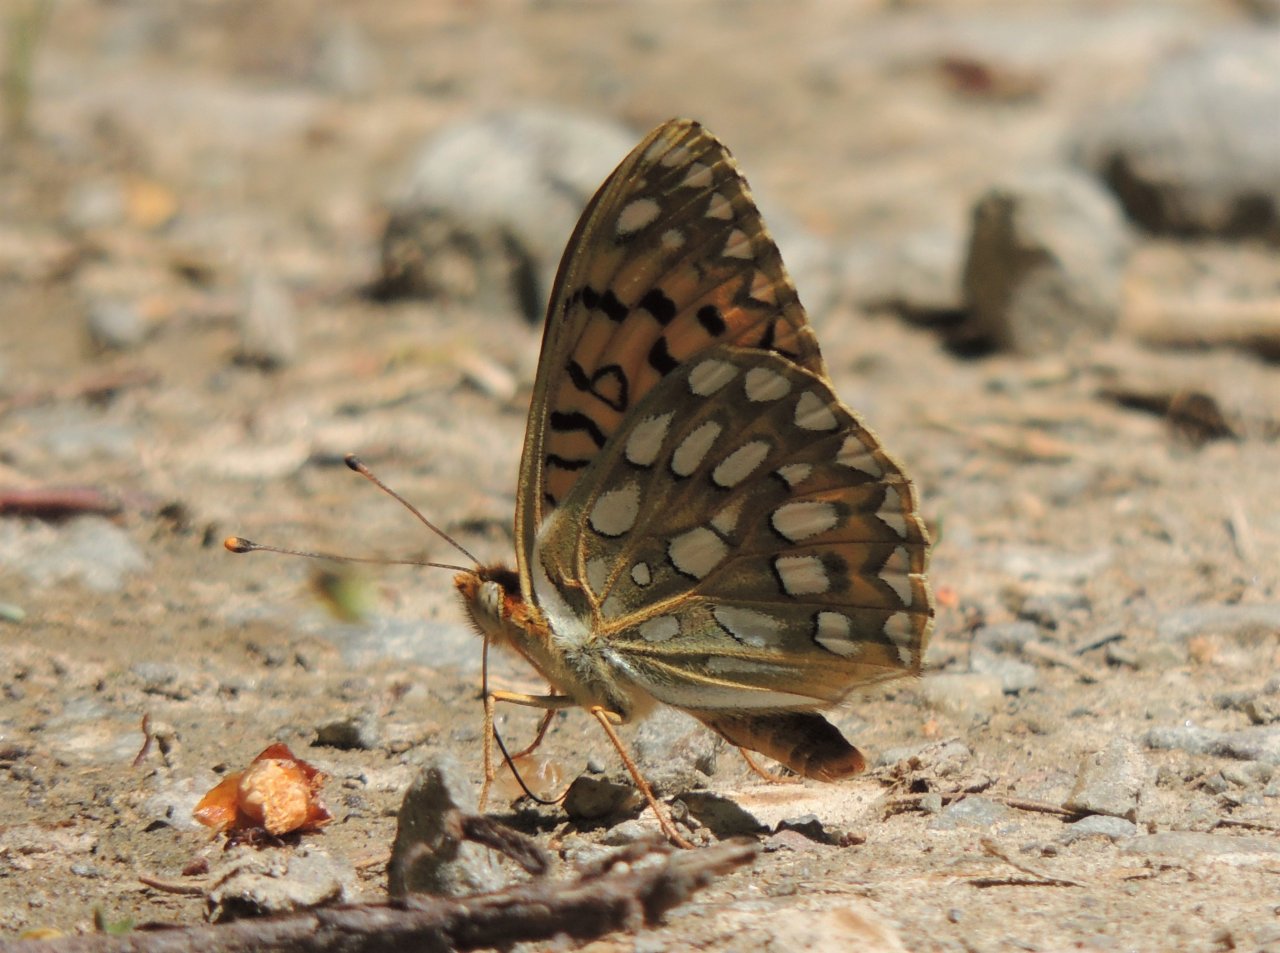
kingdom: Animalia
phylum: Arthropoda
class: Insecta
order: Lepidoptera
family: Nymphalidae
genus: Speyeria
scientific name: Speyeria callippe
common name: Callippe Fritillary
